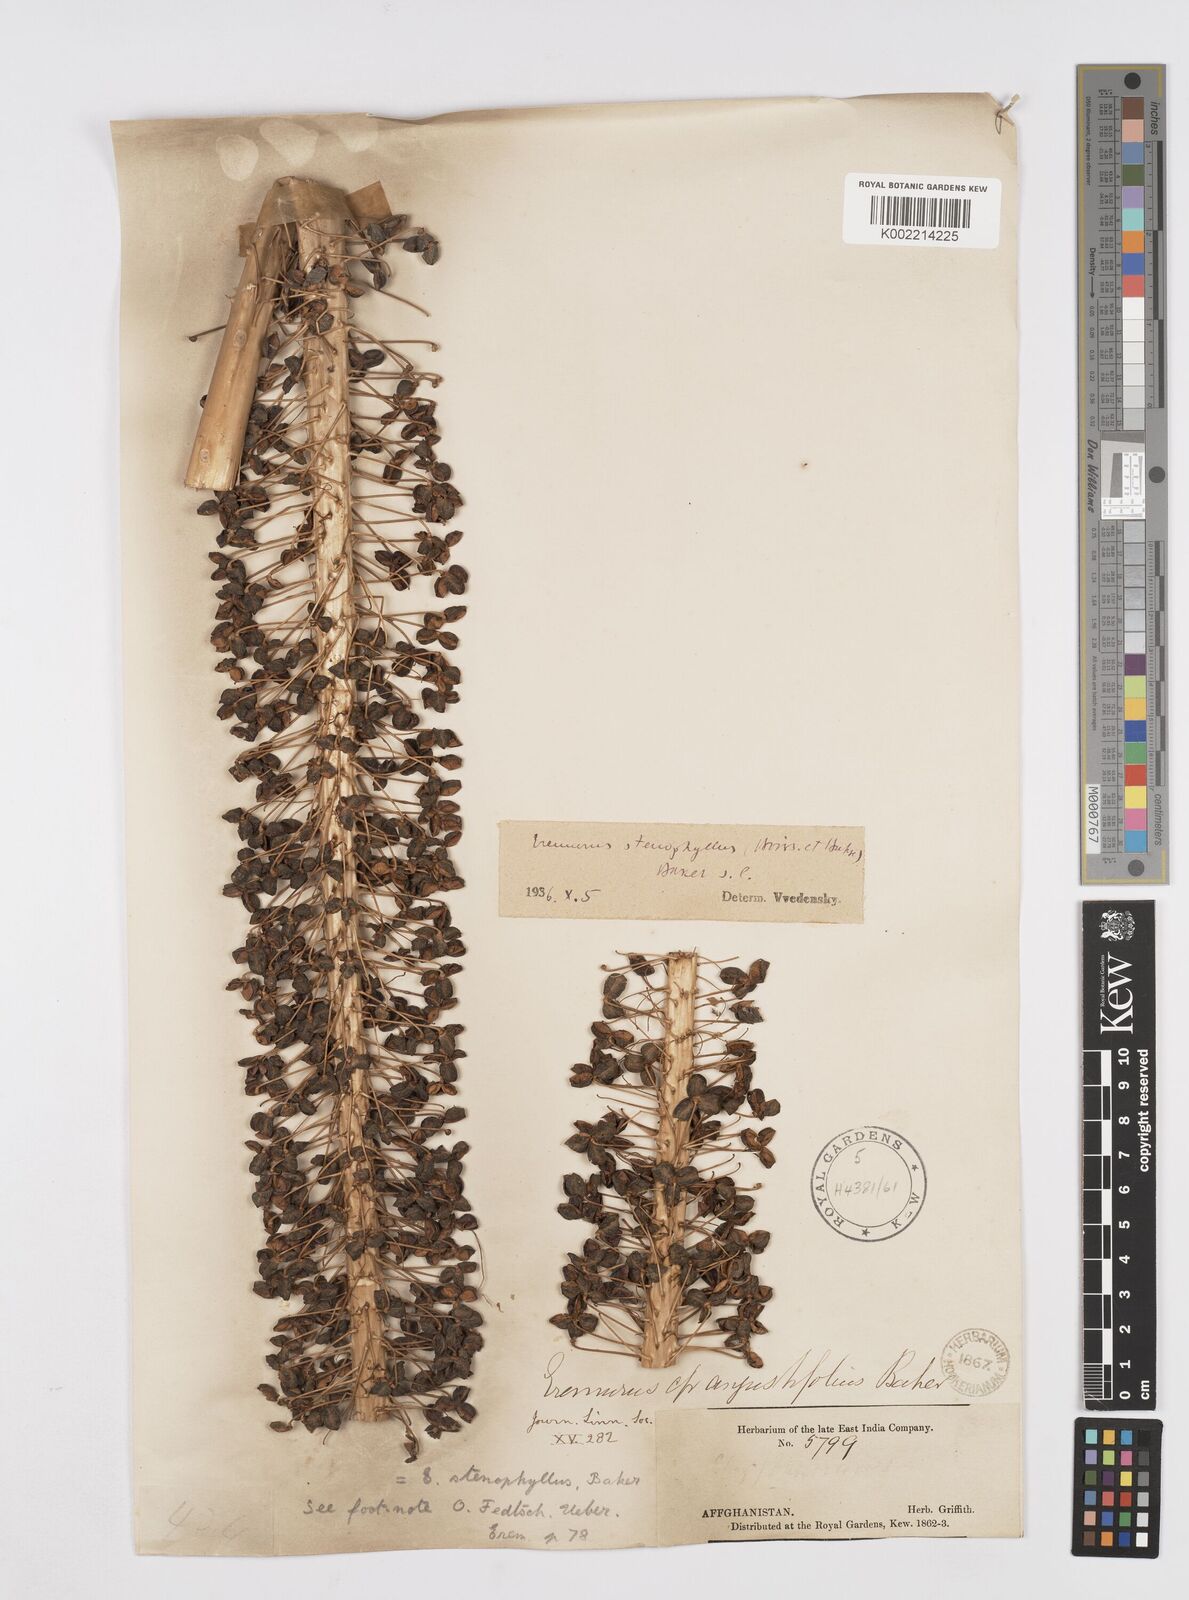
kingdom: Plantae
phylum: Tracheophyta
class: Liliopsida
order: Asparagales
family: Asphodelaceae
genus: Eremurus
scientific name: Eremurus stenophyllus
